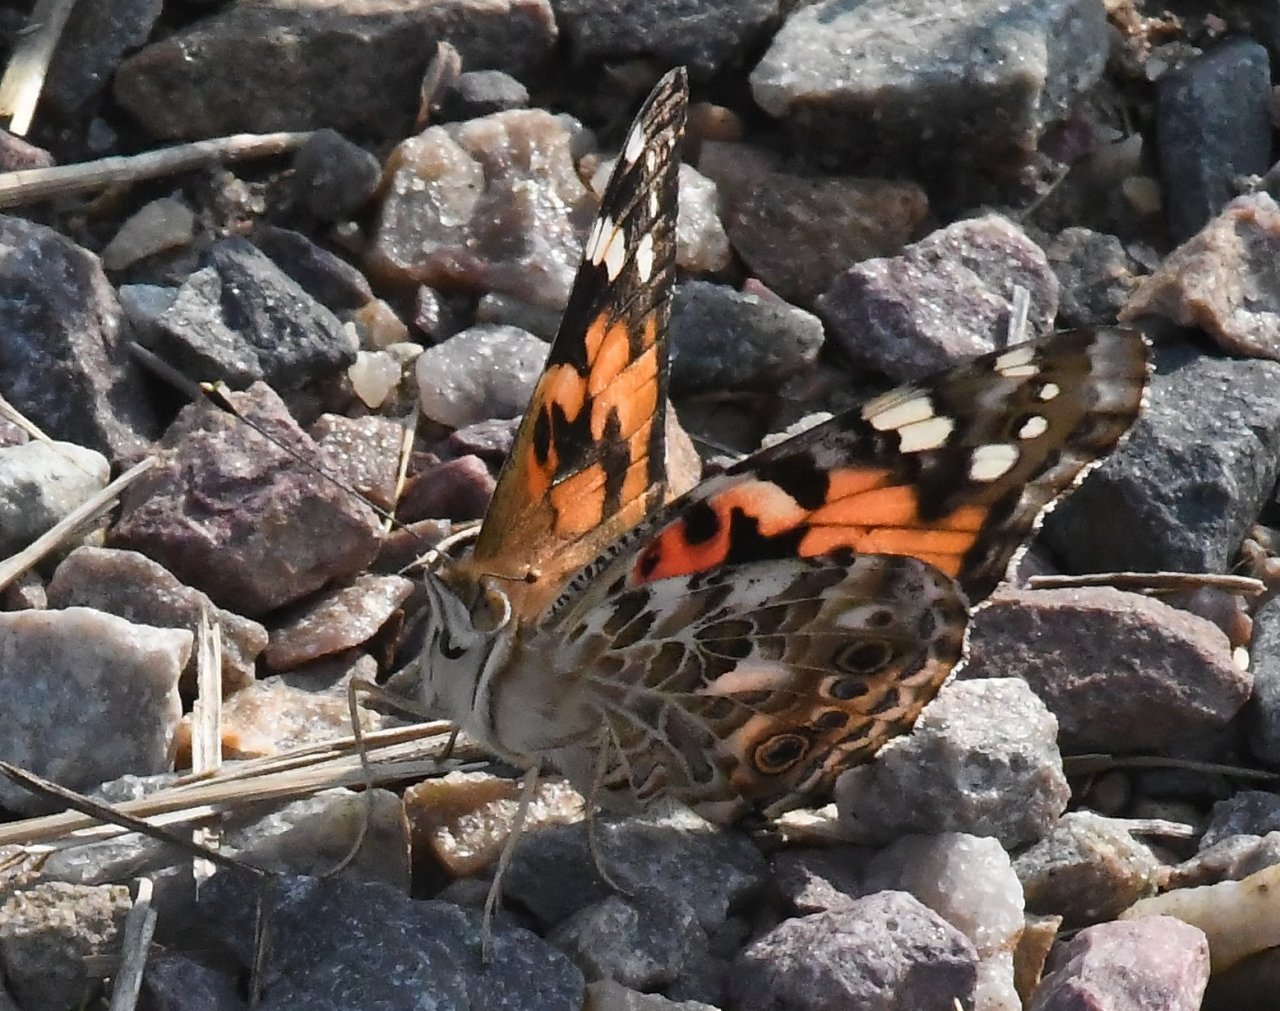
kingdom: Animalia
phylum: Arthropoda
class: Insecta
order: Lepidoptera
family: Nymphalidae
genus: Vanessa
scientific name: Vanessa cardui
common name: Painted Lady
